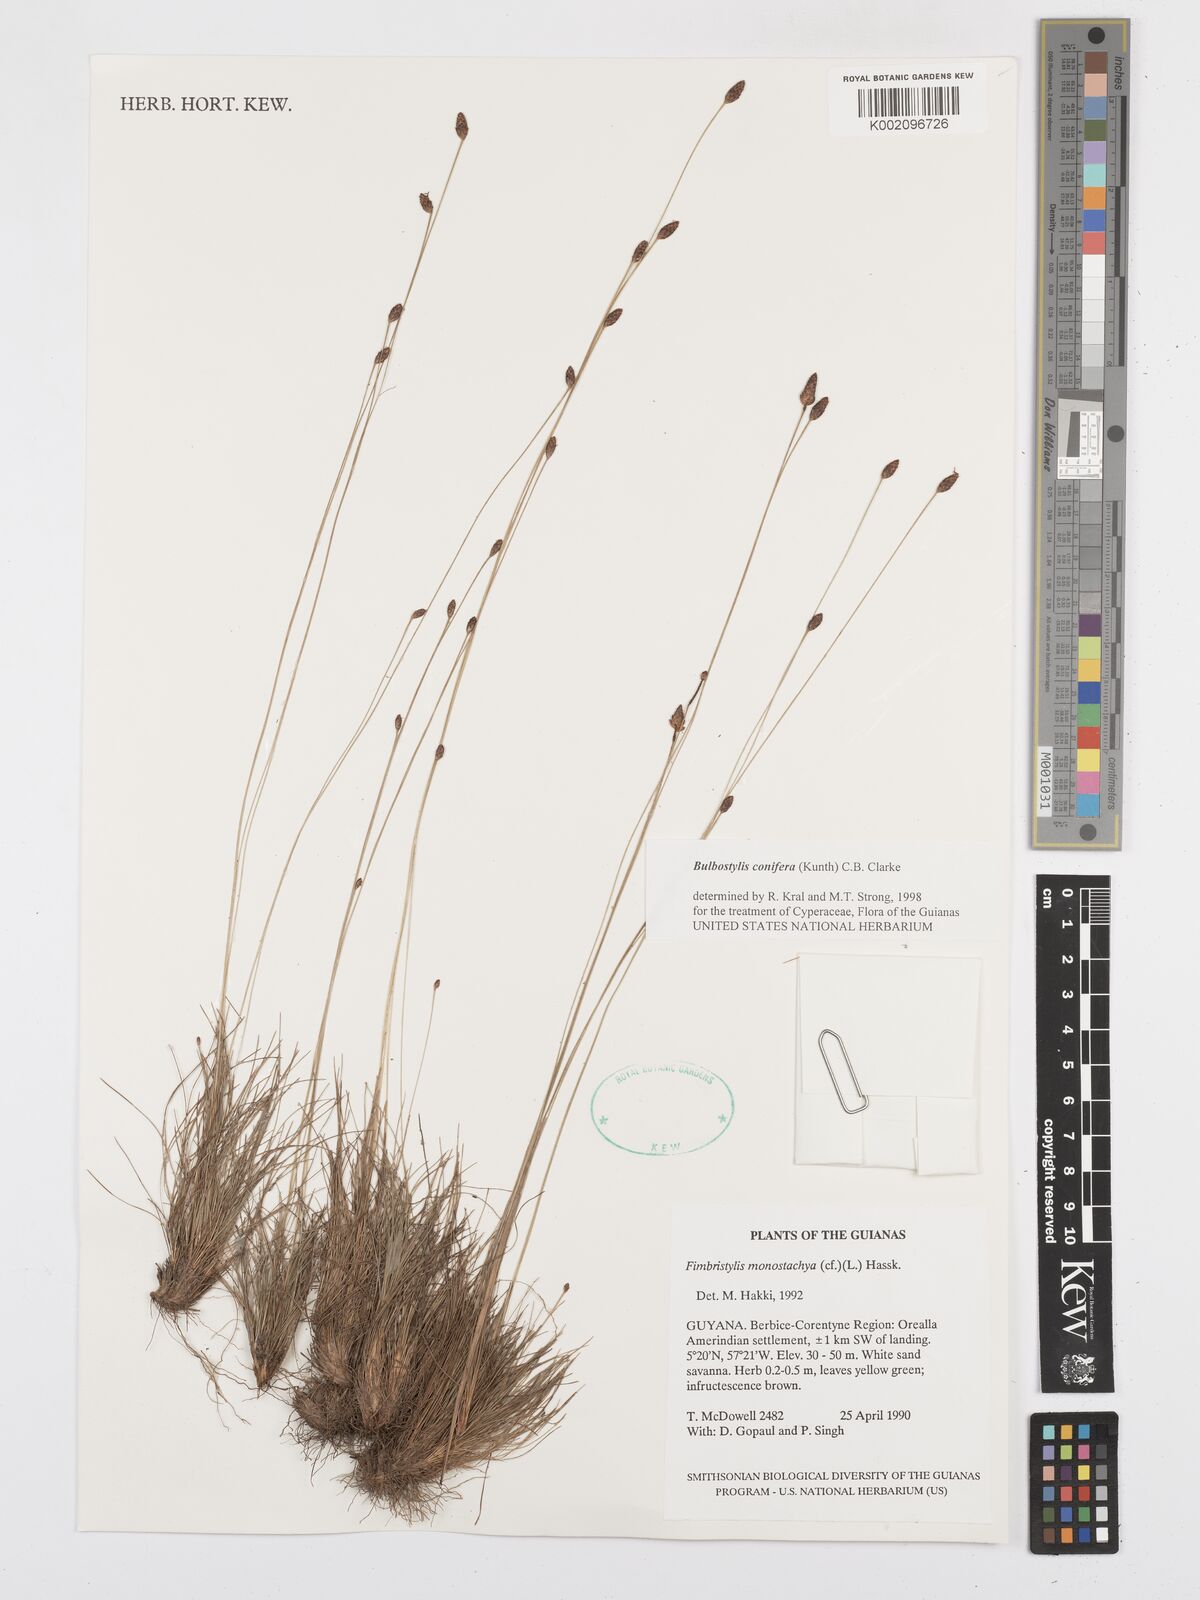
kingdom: Plantae
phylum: Tracheophyta
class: Liliopsida
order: Poales
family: Cyperaceae
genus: Bulbostylis
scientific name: Bulbostylis conifera
